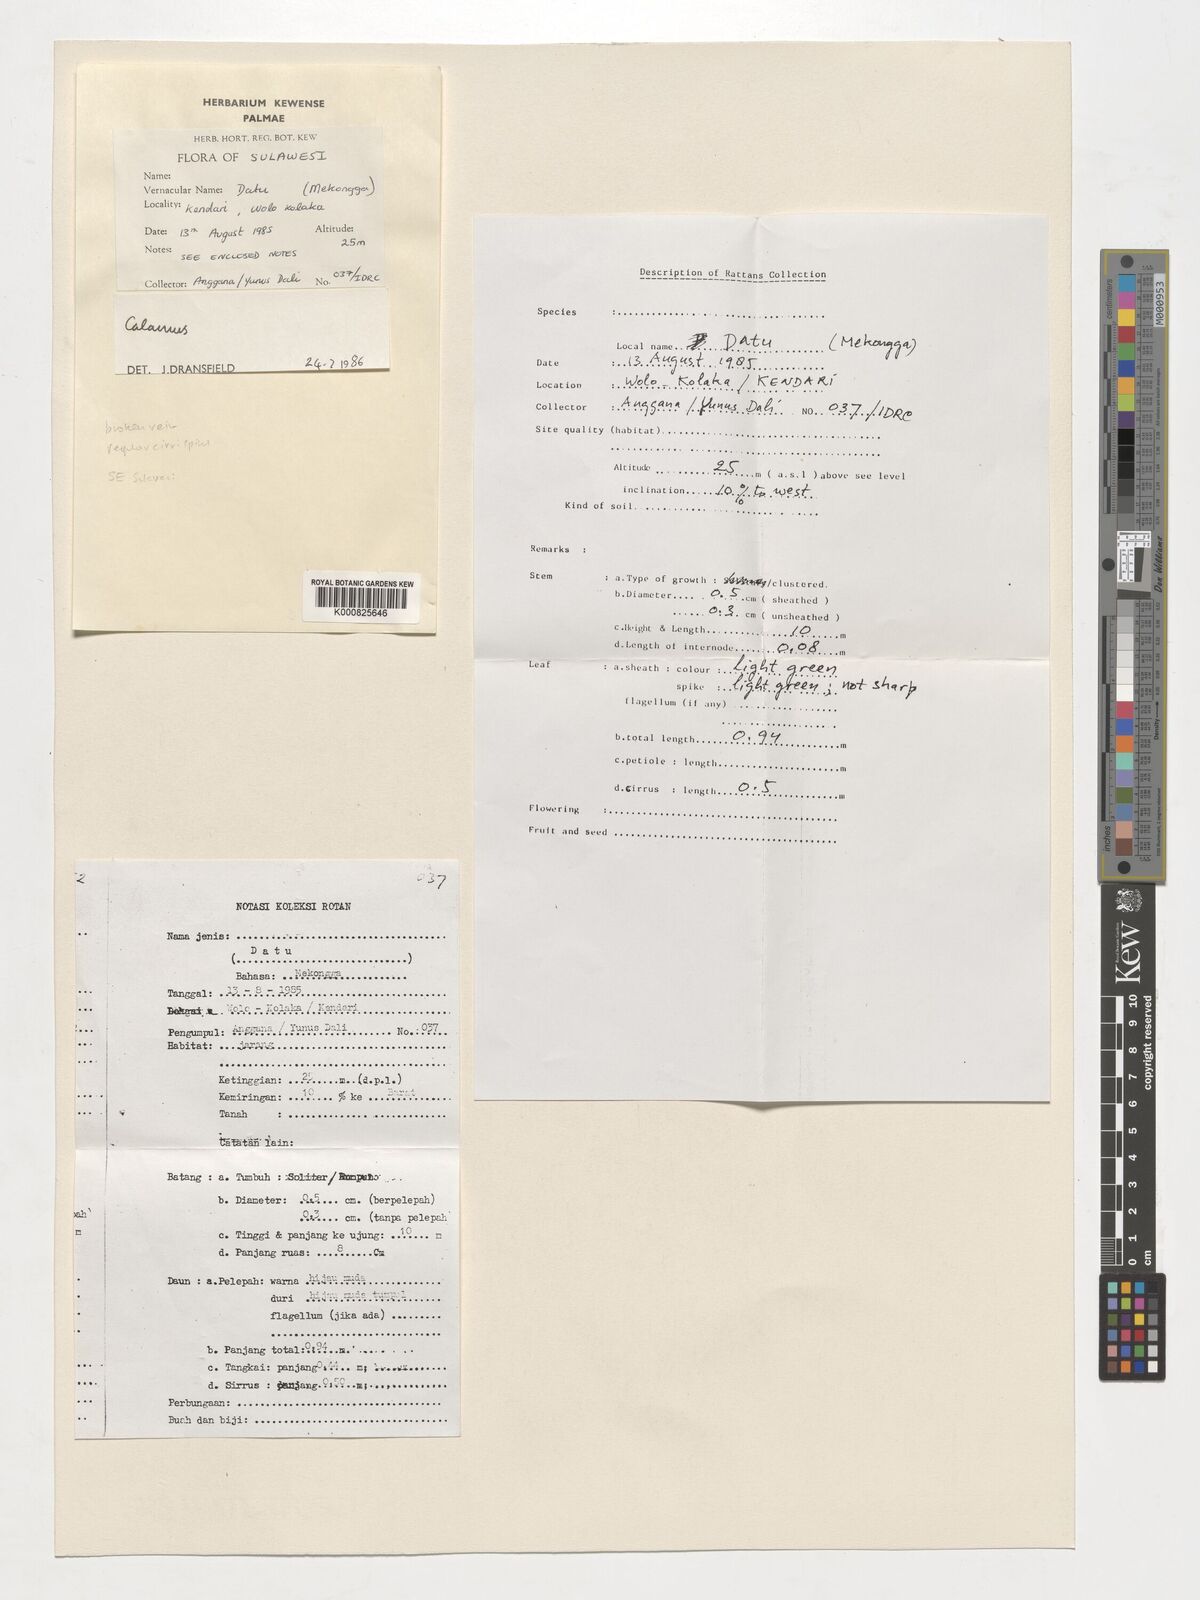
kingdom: Plantae
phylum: Tracheophyta
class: Liliopsida
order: Arecales
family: Arecaceae
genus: Calamus
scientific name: Calamus
